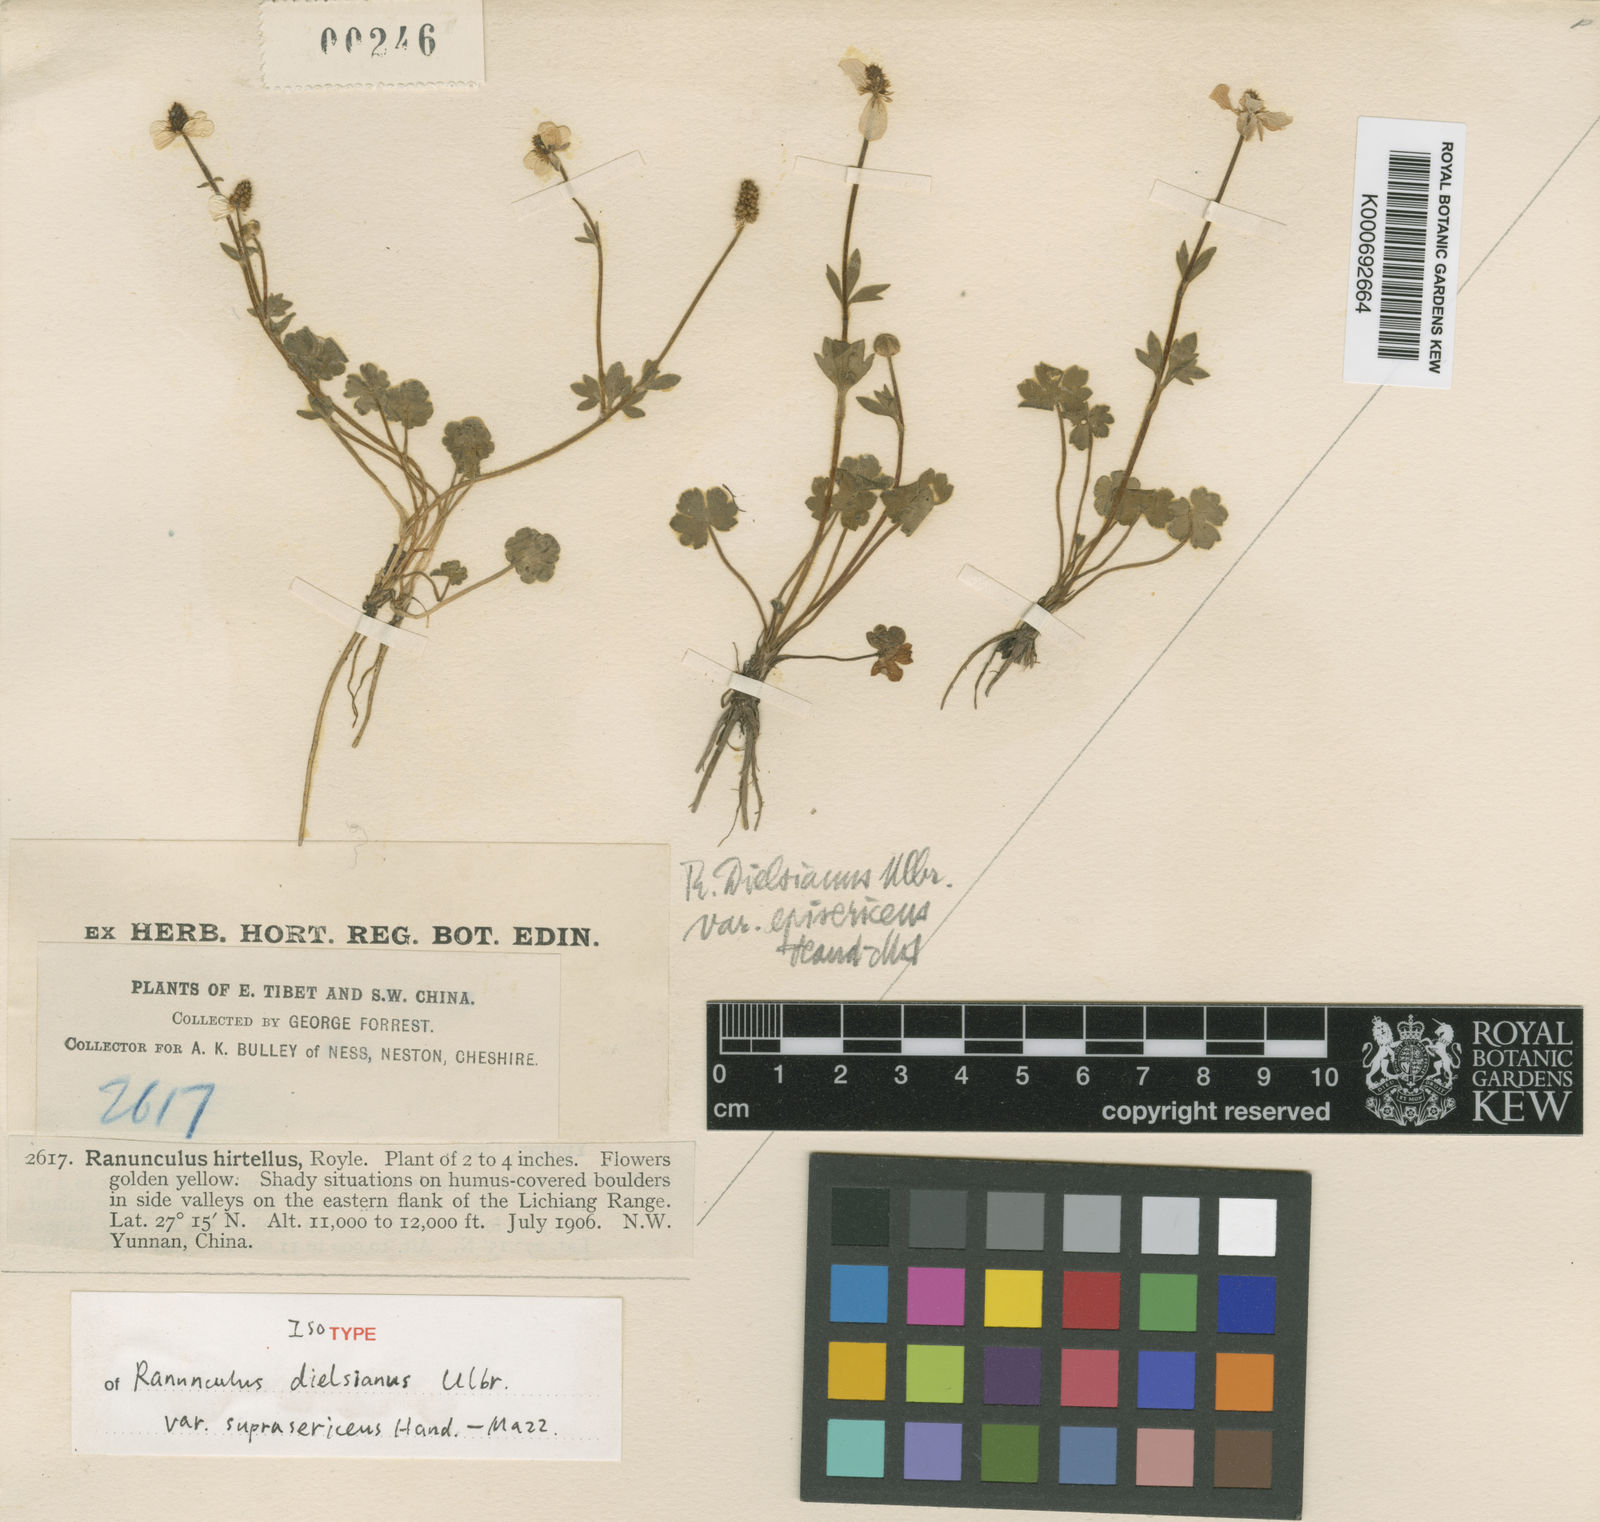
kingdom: Plantae
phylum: Tracheophyta
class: Magnoliopsida
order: Ranunculales
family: Ranunculaceae
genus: Ranunculus
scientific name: Ranunculus dielsianus
